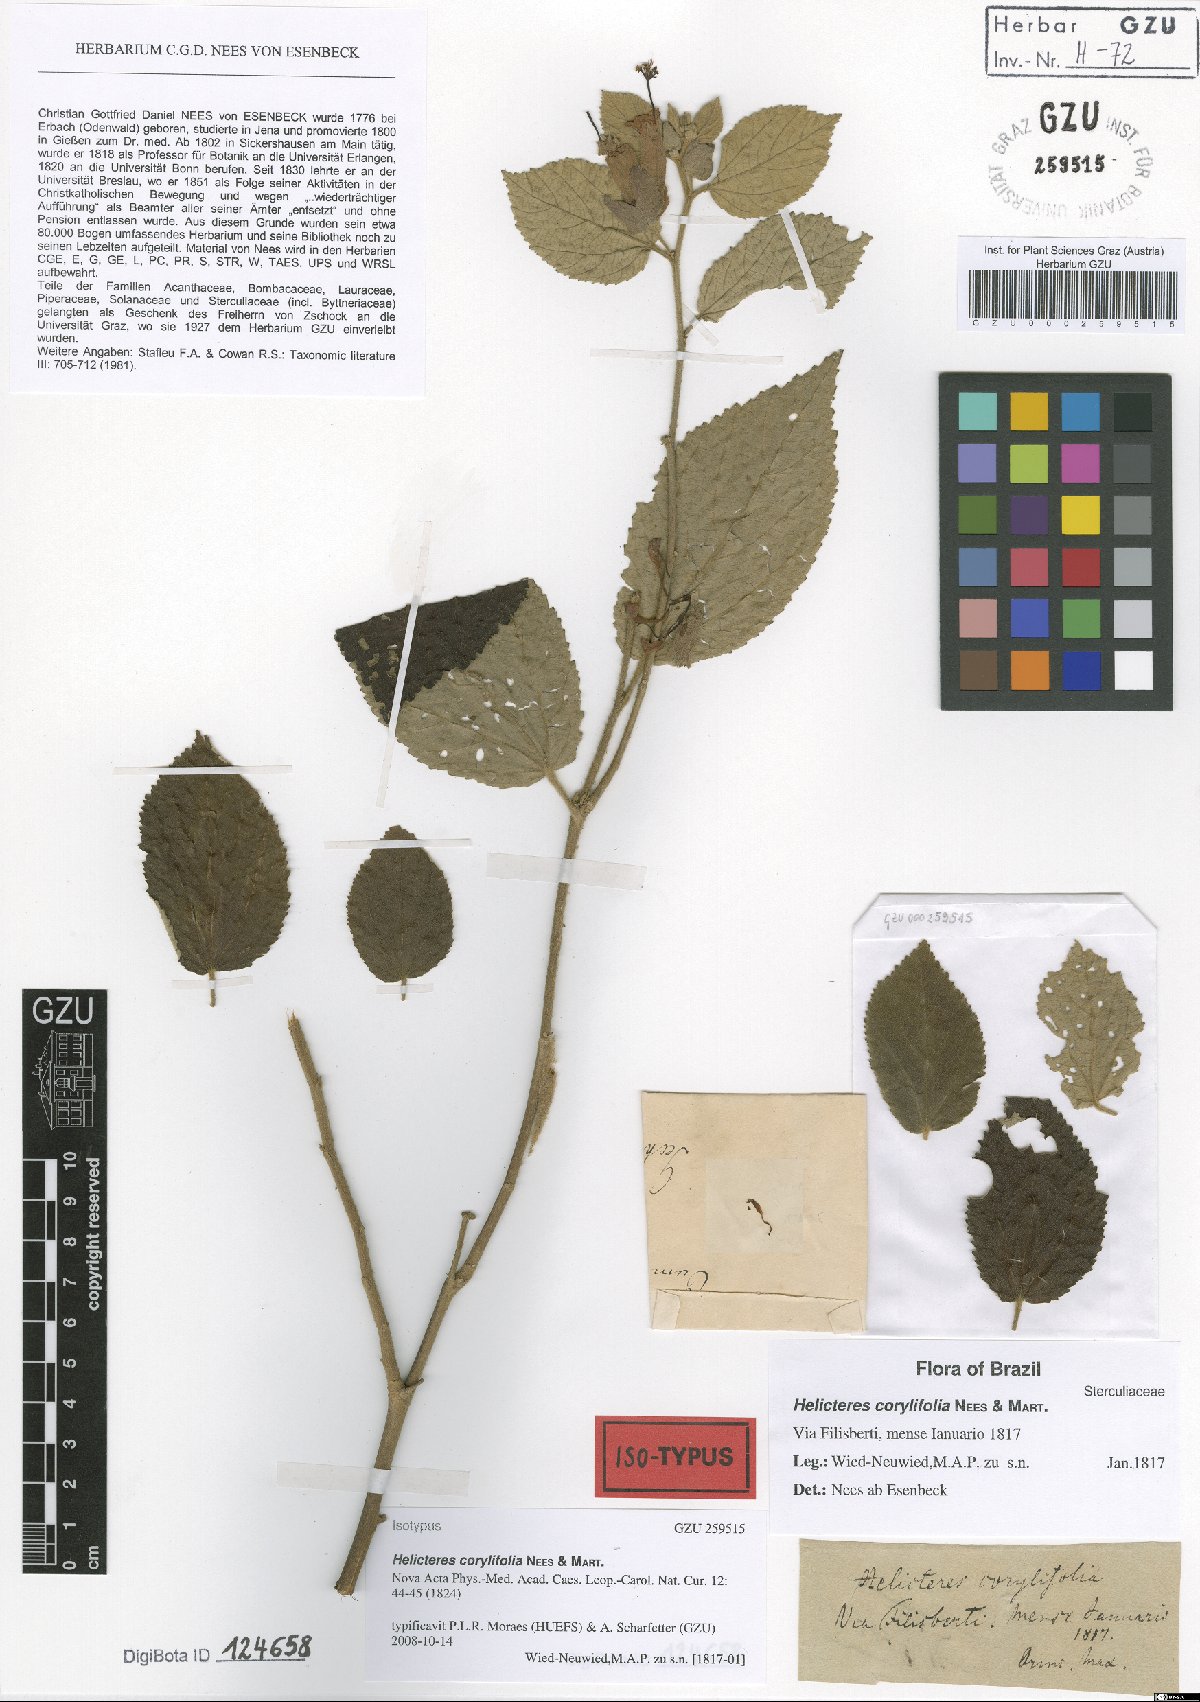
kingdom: Plantae
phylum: Tracheophyta
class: Magnoliopsida
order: Malvales
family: Malvaceae
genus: Helicteres
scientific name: Helicteres corylifolia
